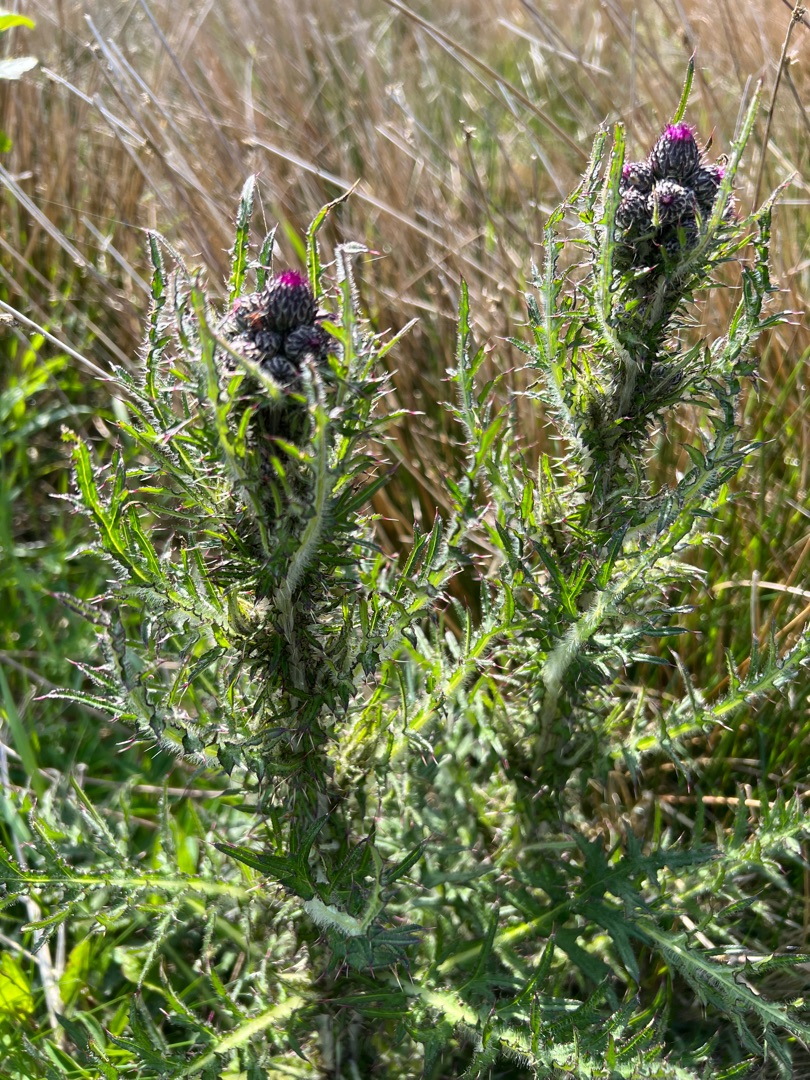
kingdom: Plantae
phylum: Tracheophyta
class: Magnoliopsida
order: Asterales
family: Asteraceae
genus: Cirsium
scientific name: Cirsium palustre
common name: Kær-tidsel
